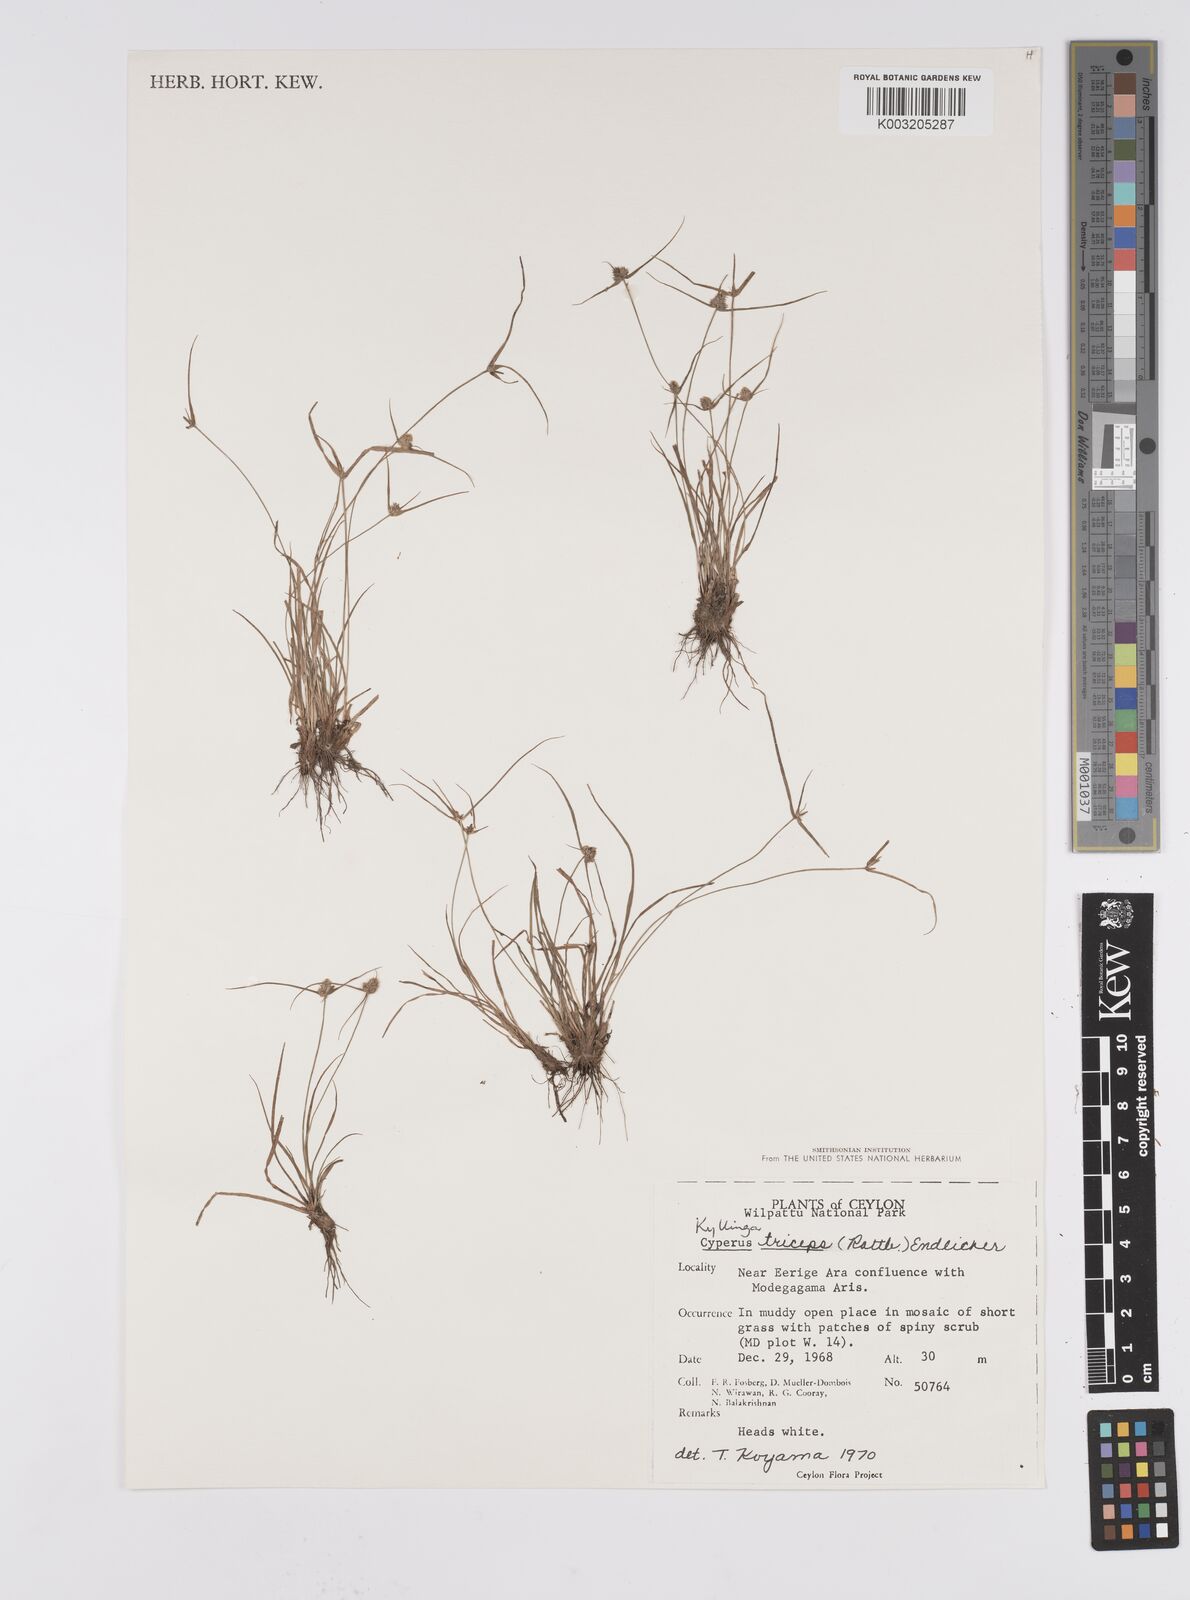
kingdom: Plantae
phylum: Tracheophyta
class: Liliopsida
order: Poales
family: Cyperaceae
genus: Cyperus
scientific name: Cyperus
